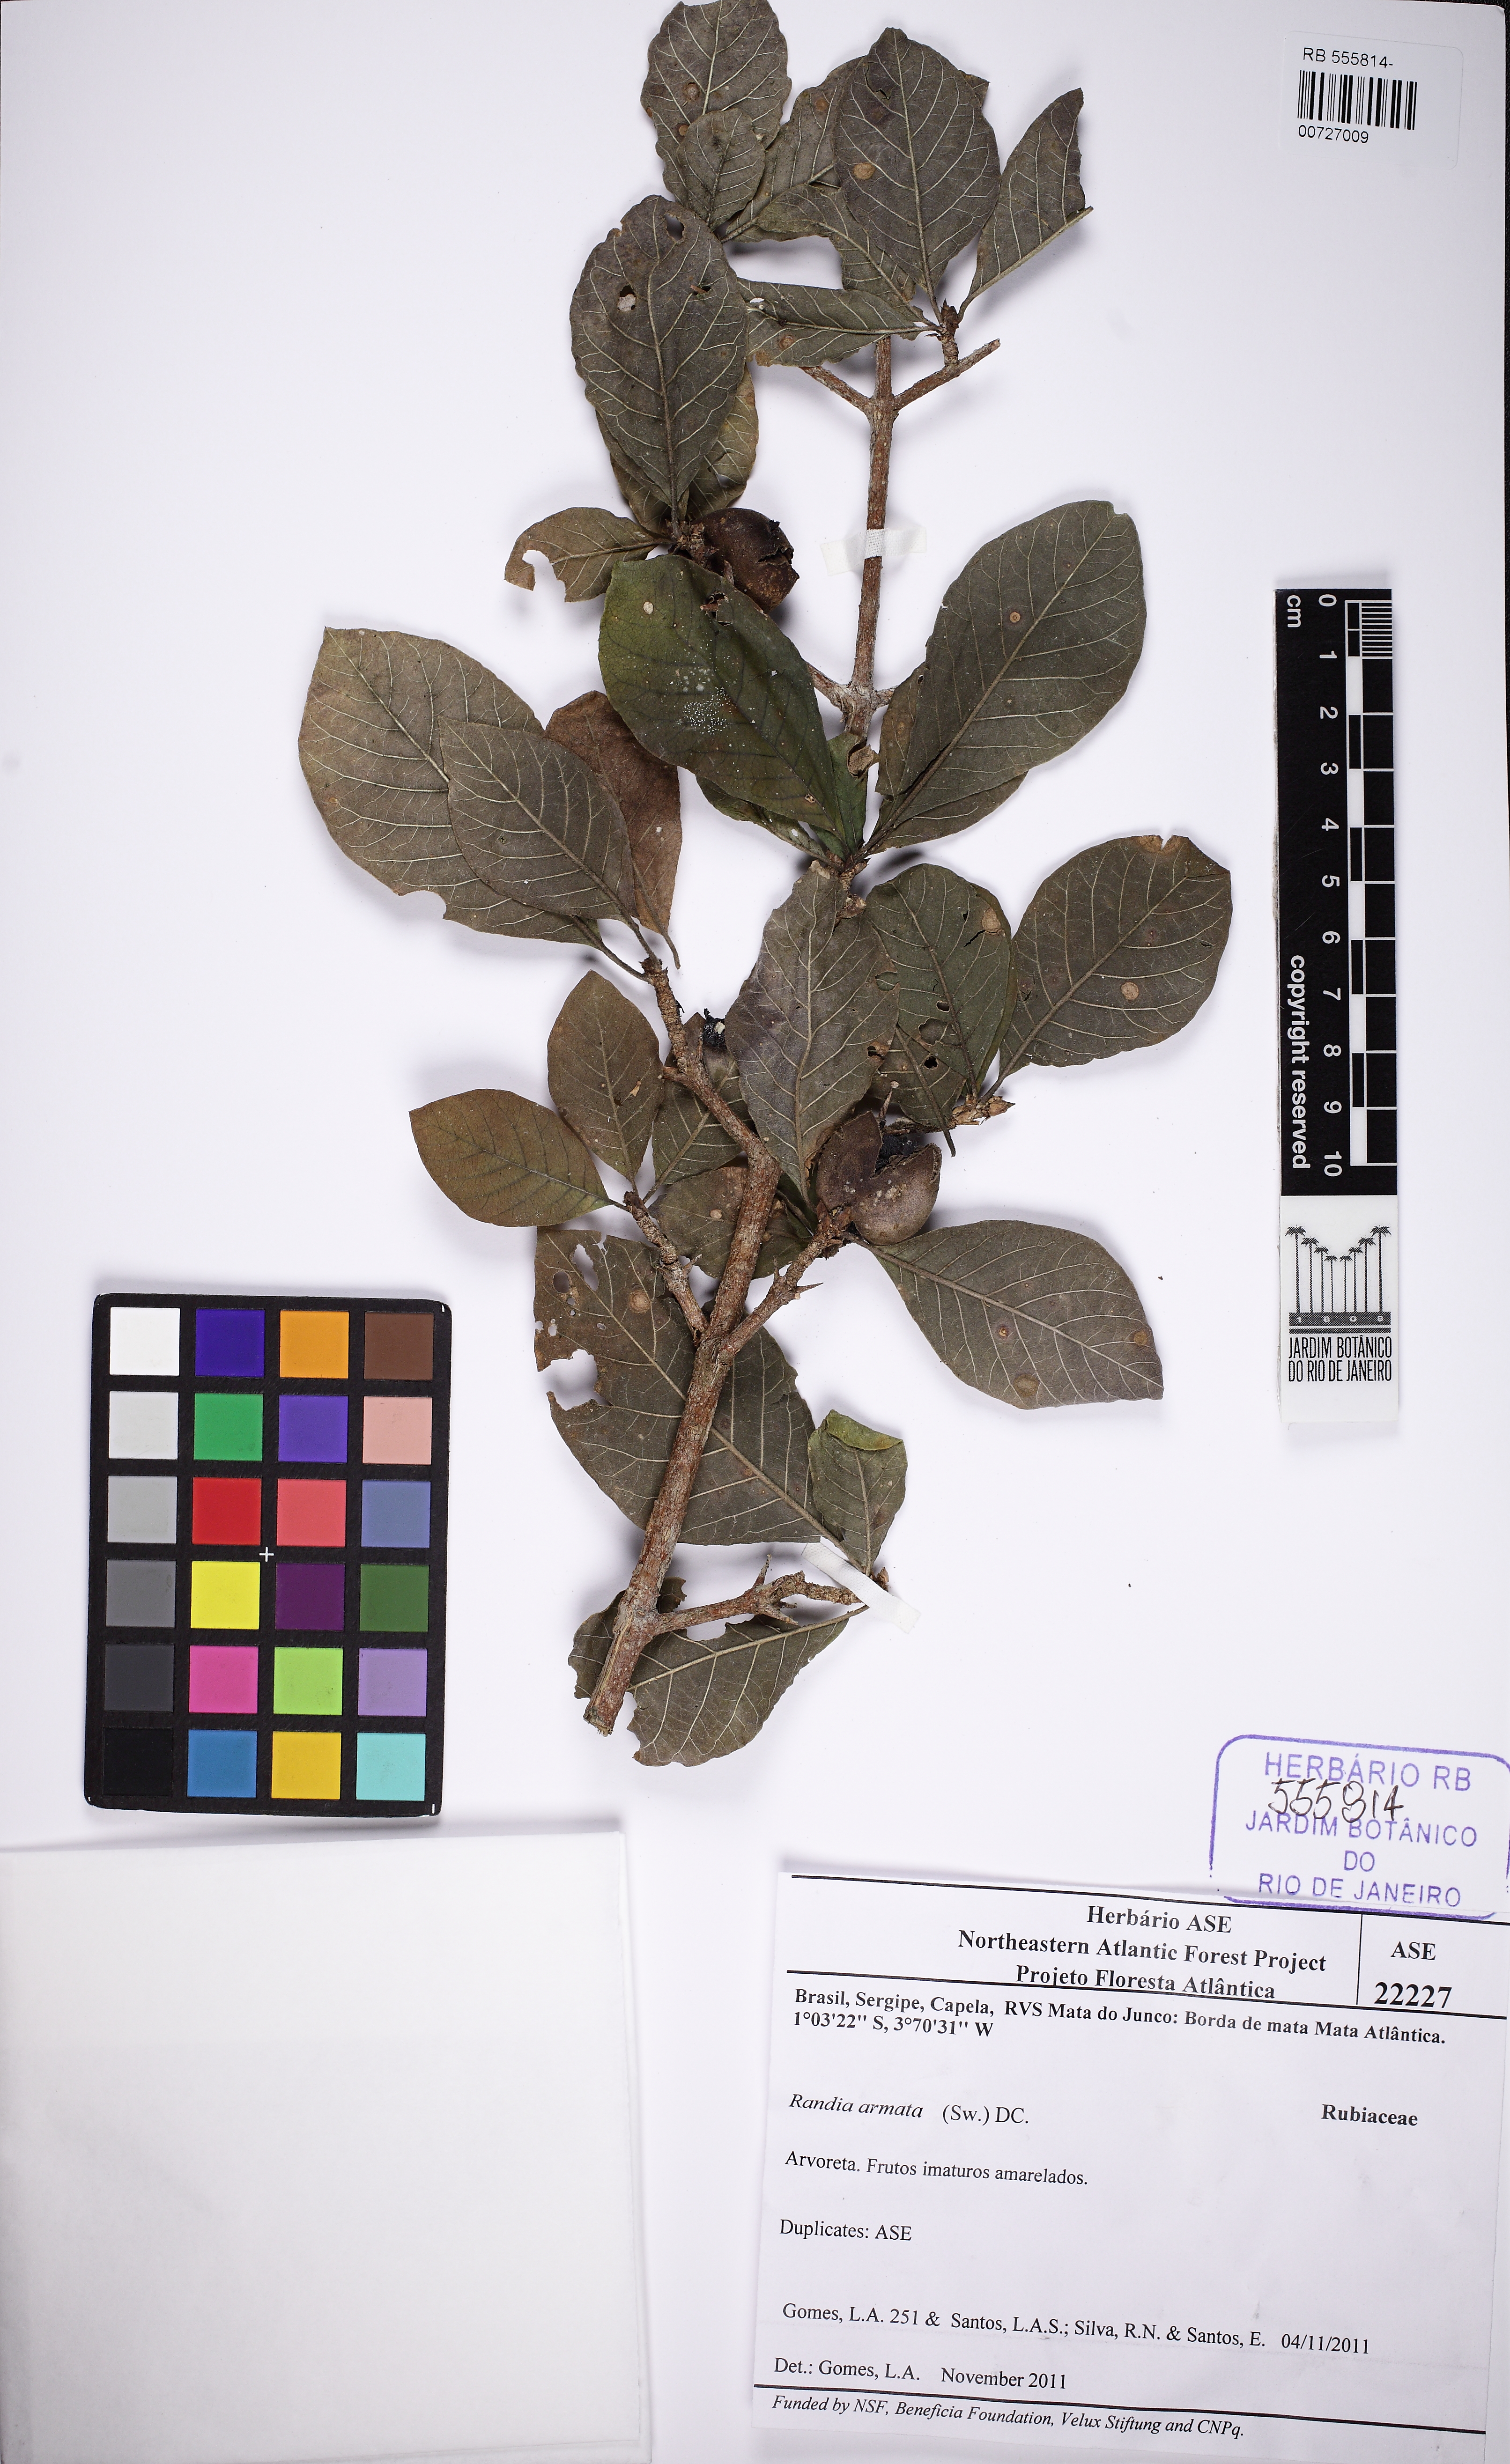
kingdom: Plantae
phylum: Tracheophyta
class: Magnoliopsida
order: Gentianales
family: Rubiaceae
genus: Randia
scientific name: Randia armata
